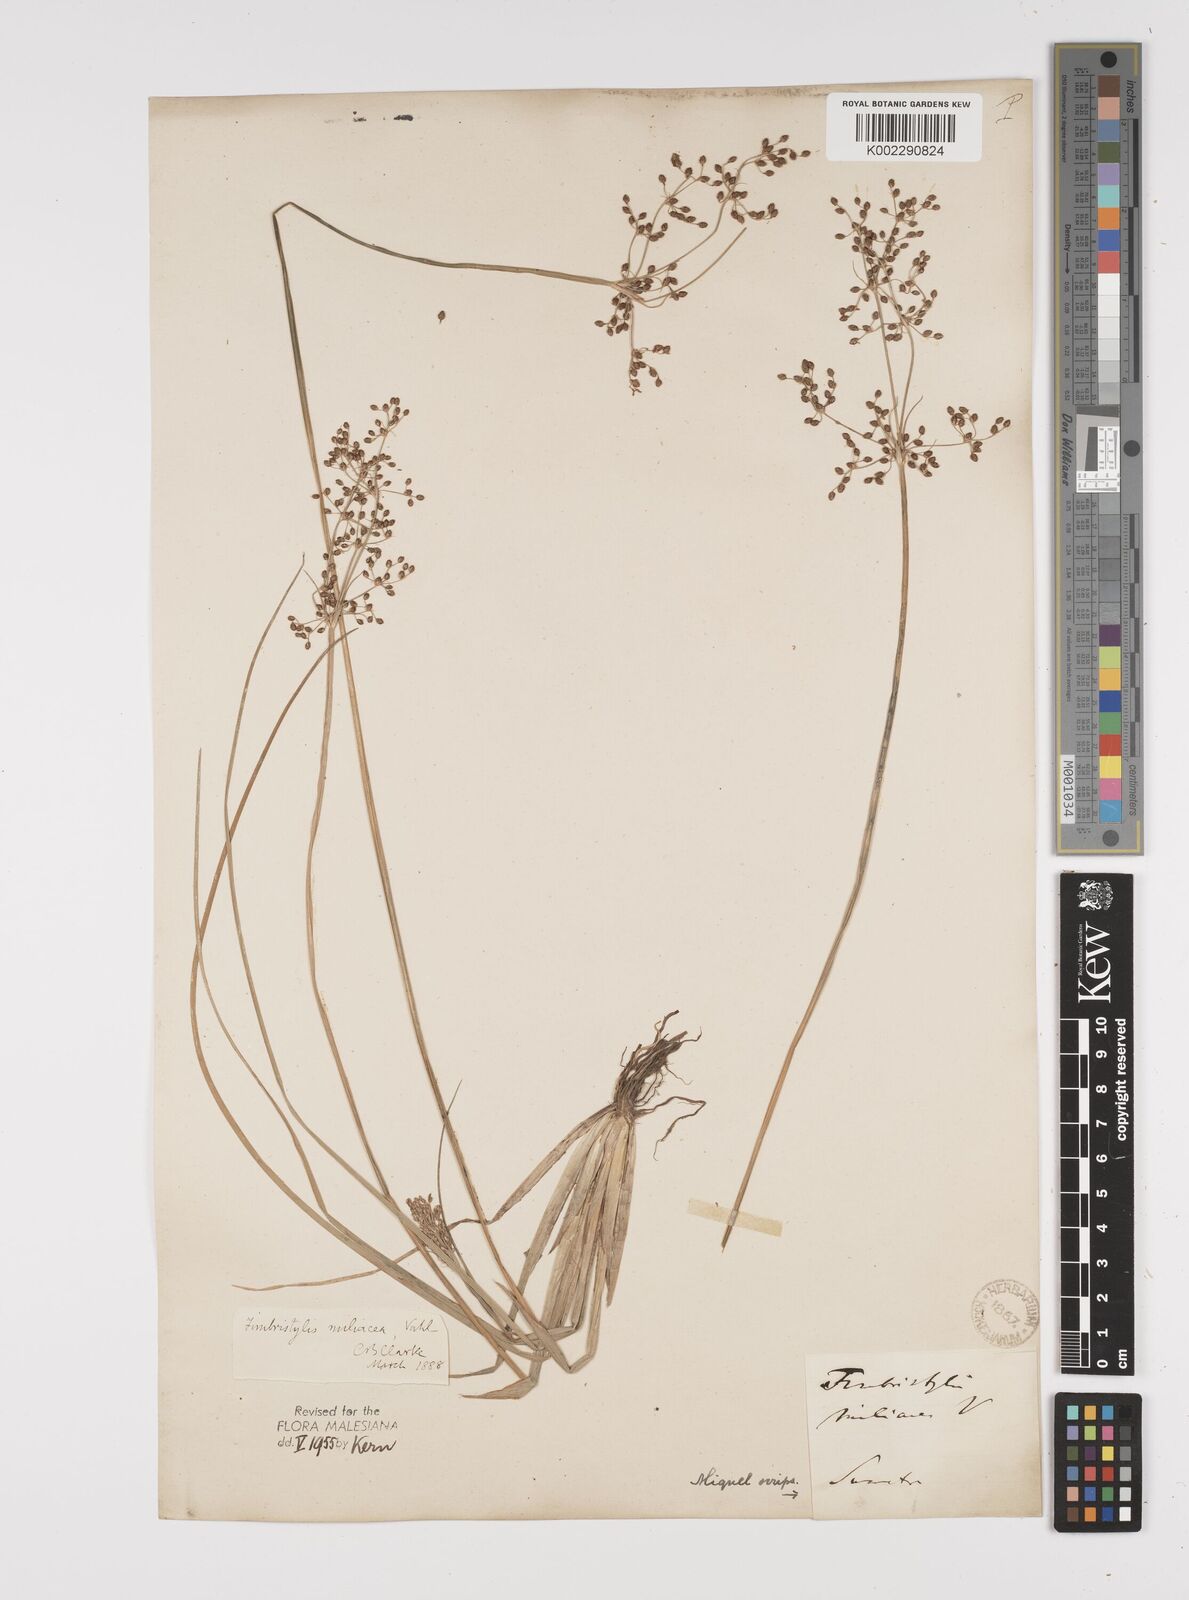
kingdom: Plantae
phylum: Tracheophyta
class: Liliopsida
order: Poales
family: Cyperaceae
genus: Fimbristylis
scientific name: Fimbristylis littoralis
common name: Fimbry
